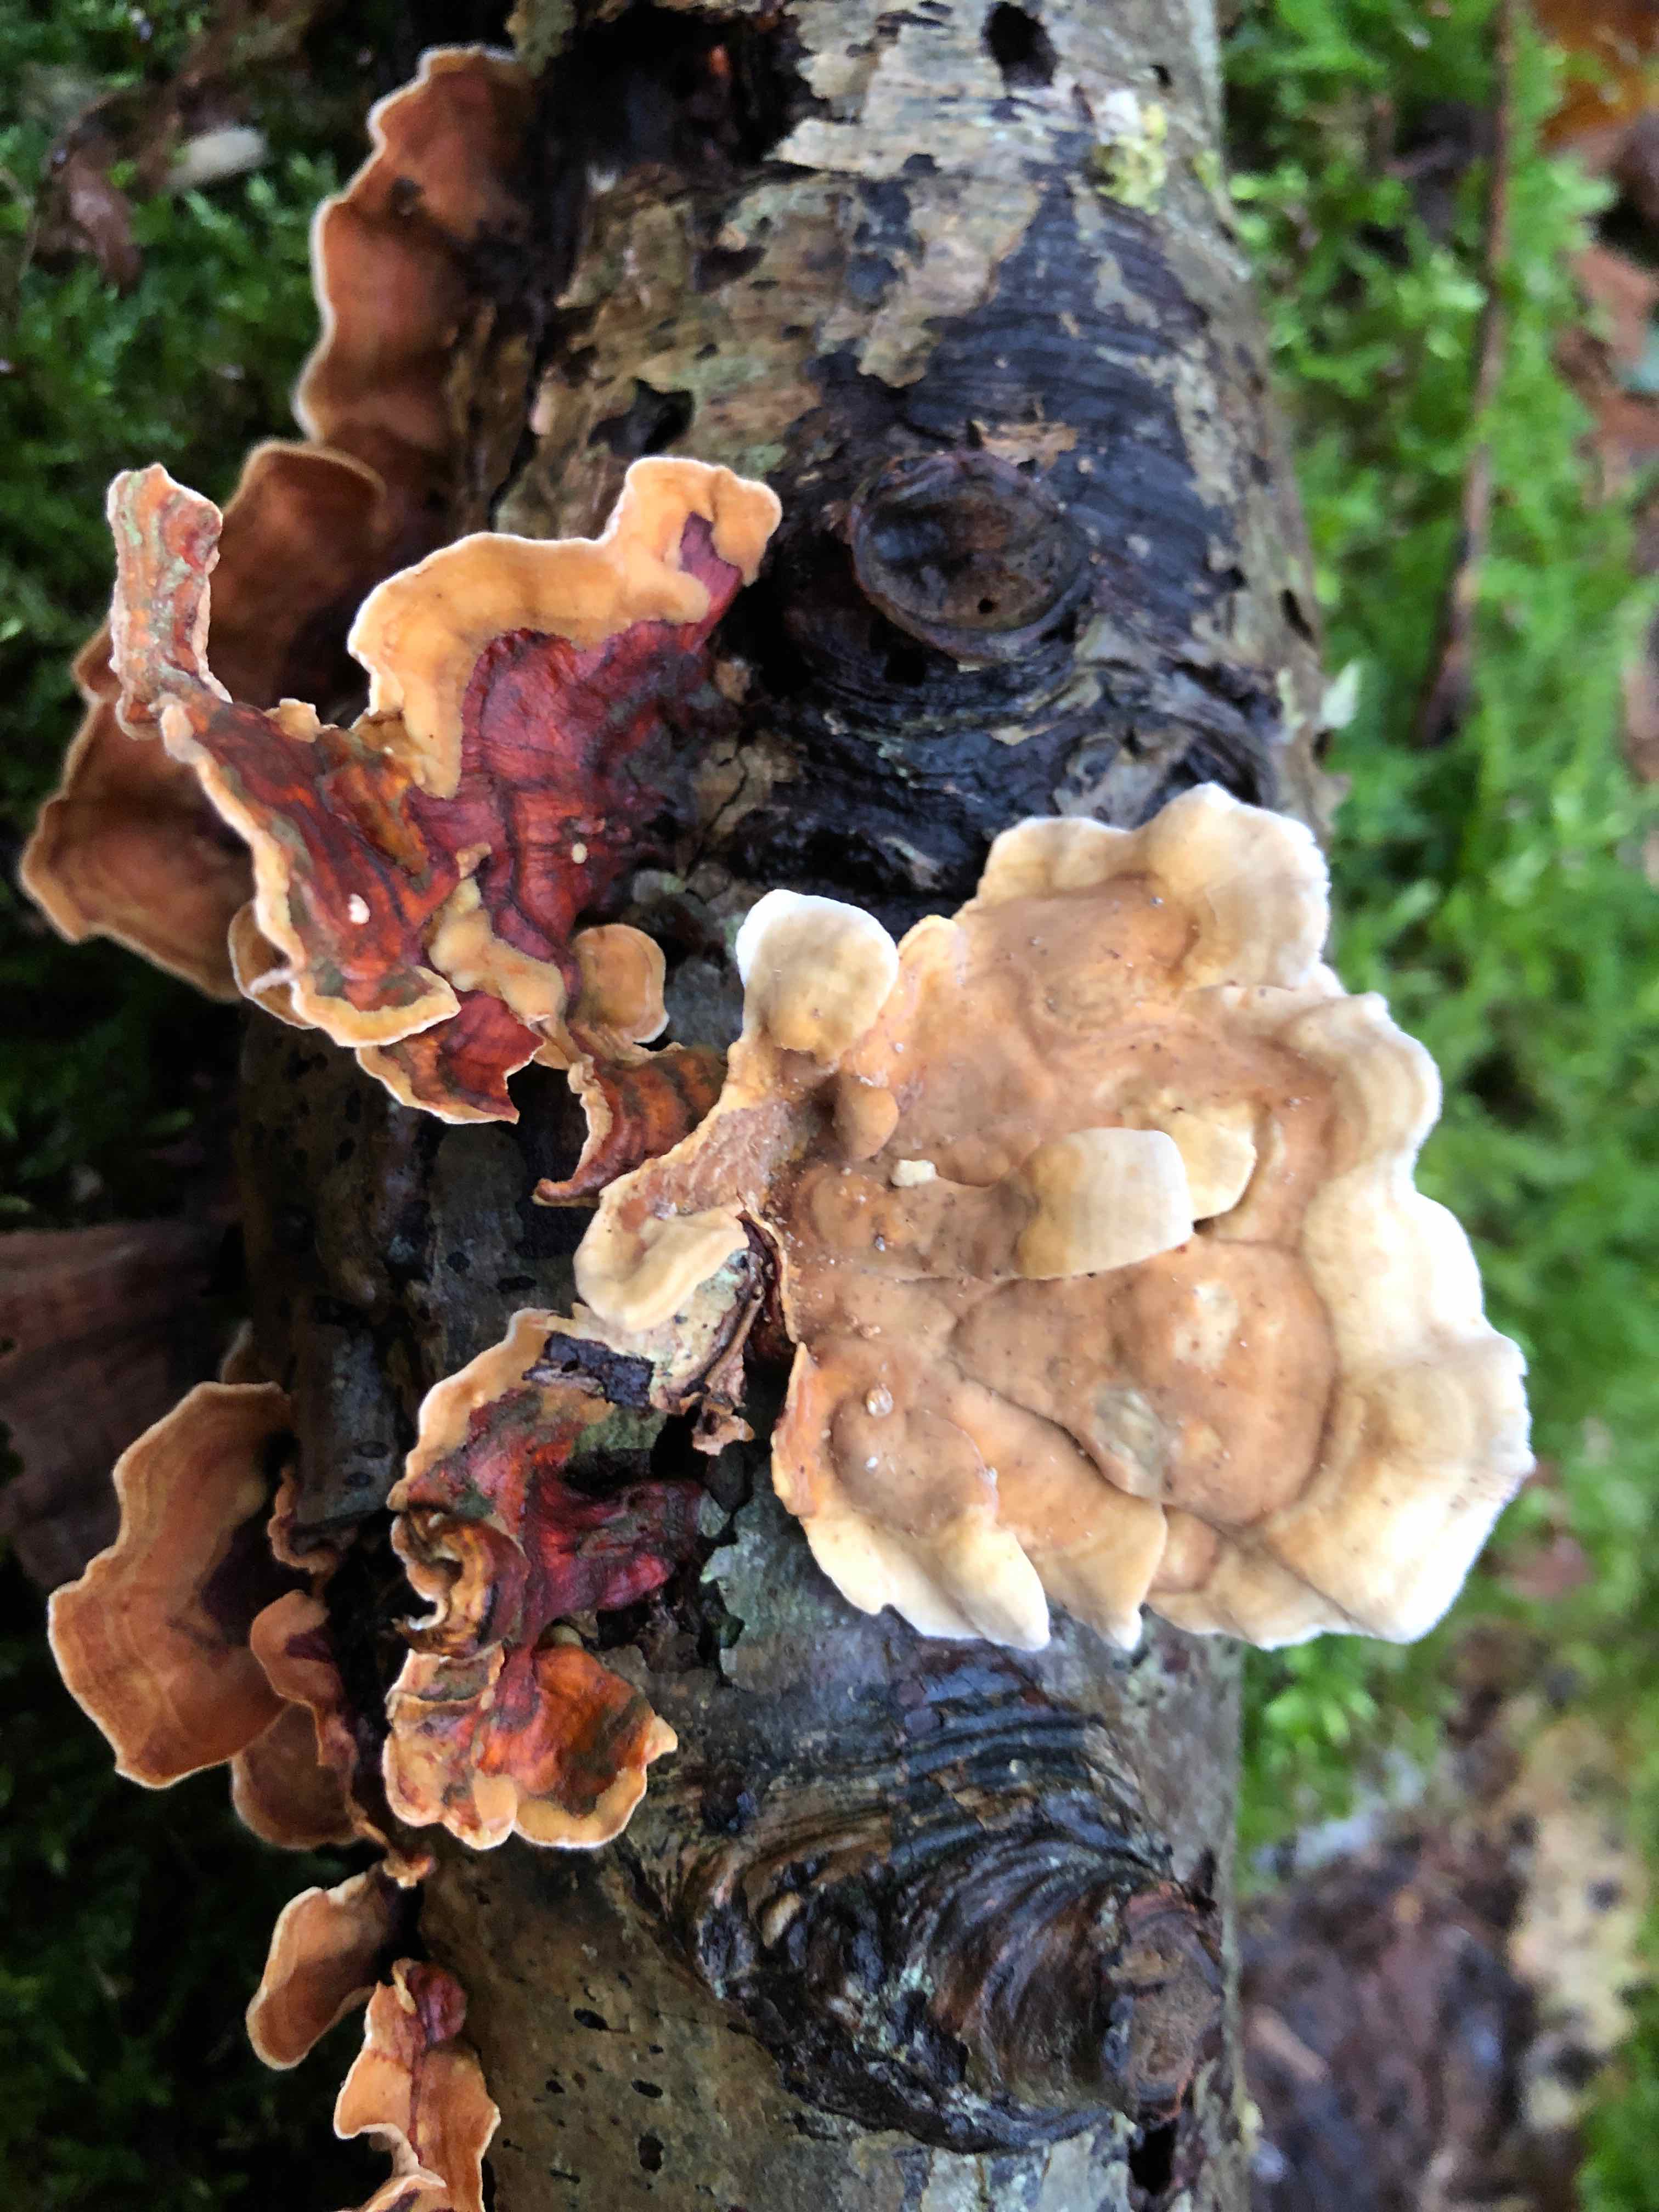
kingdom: Fungi
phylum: Basidiomycota
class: Agaricomycetes
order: Russulales
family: Stereaceae
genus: Stereum
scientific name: Stereum subtomentosum
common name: smuk lædersvamp
